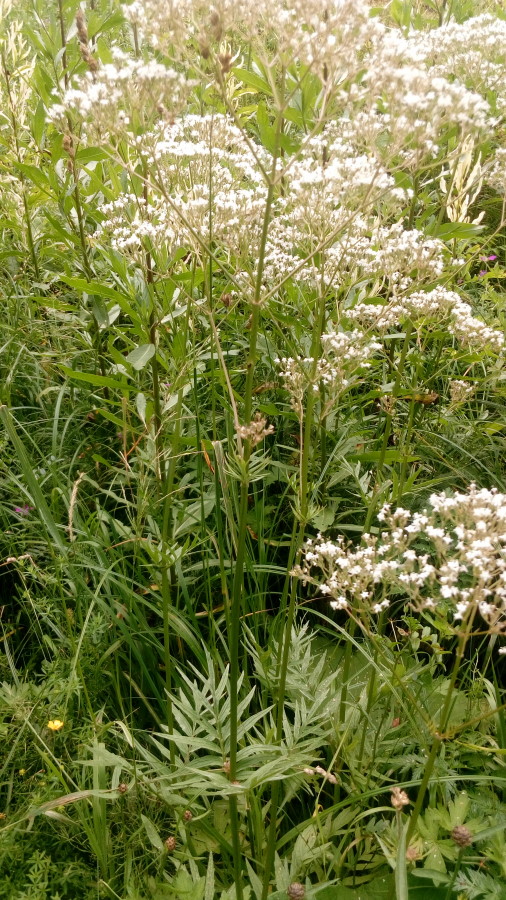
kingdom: Plantae
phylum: Tracheophyta
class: Magnoliopsida
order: Dipsacales
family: Caprifoliaceae
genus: Valeriana
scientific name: Valeriana officinalis
